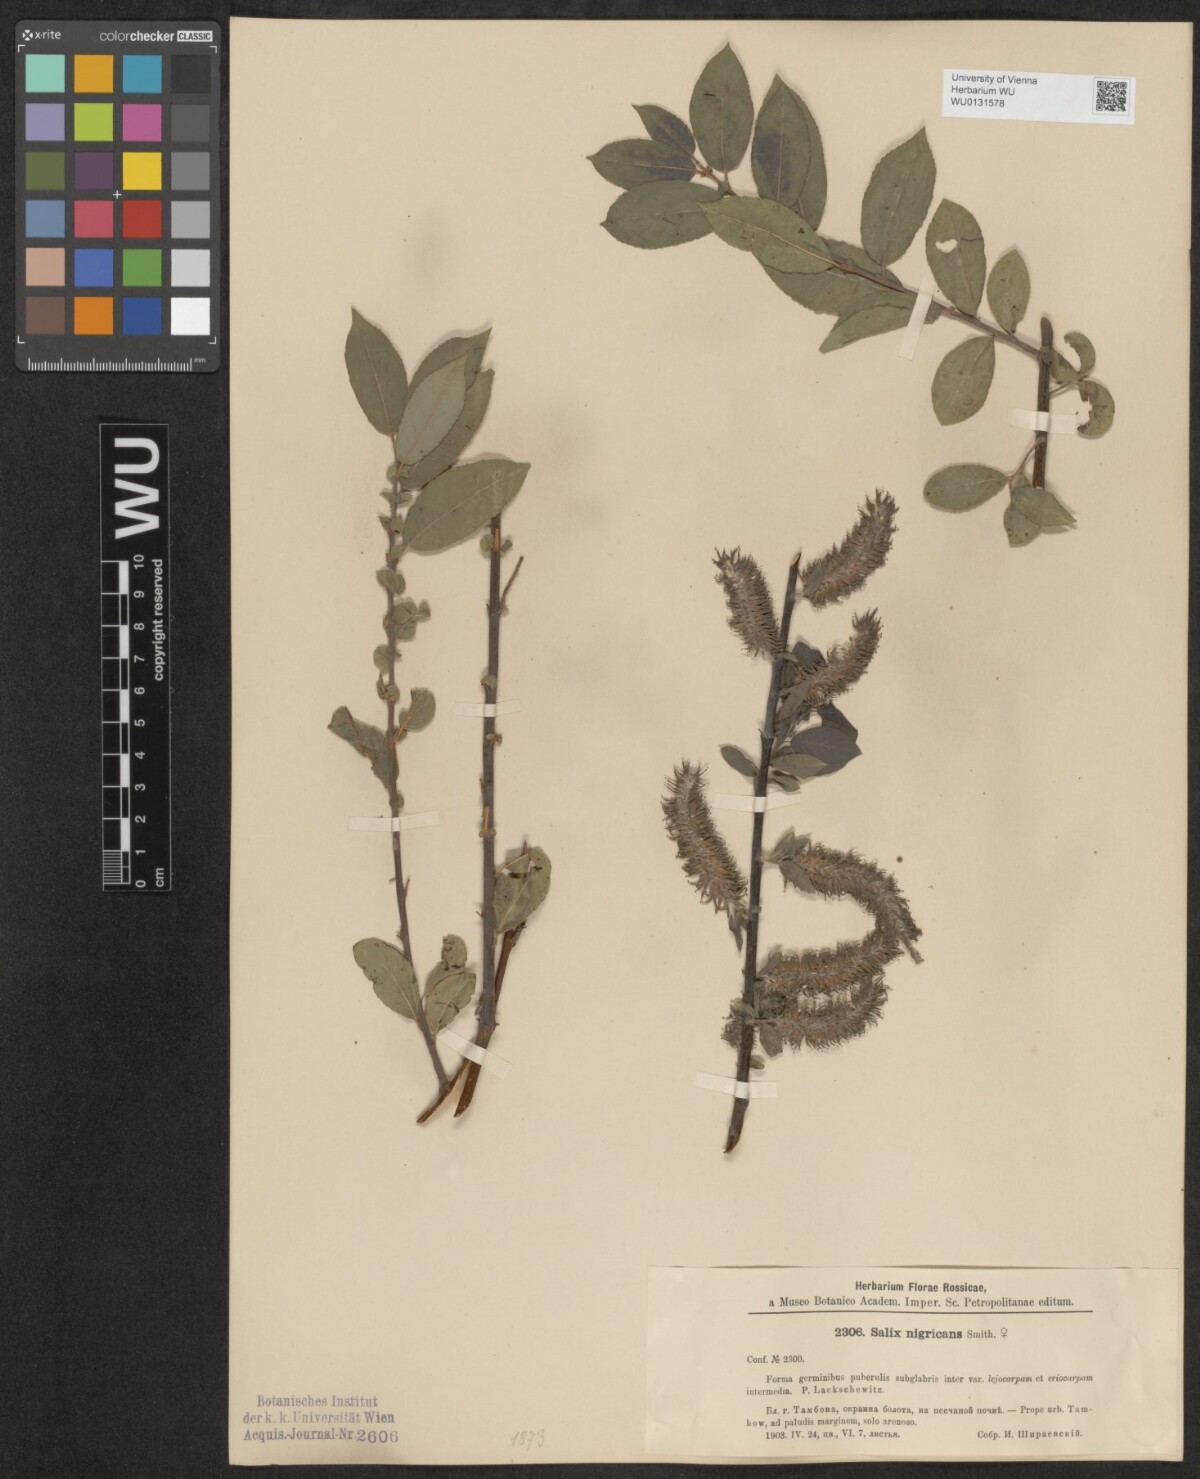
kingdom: Plantae
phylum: Tracheophyta
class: Magnoliopsida
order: Malpighiales
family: Salicaceae
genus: Salix
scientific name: Salix myrsinifolia
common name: Dark-leaved willow
